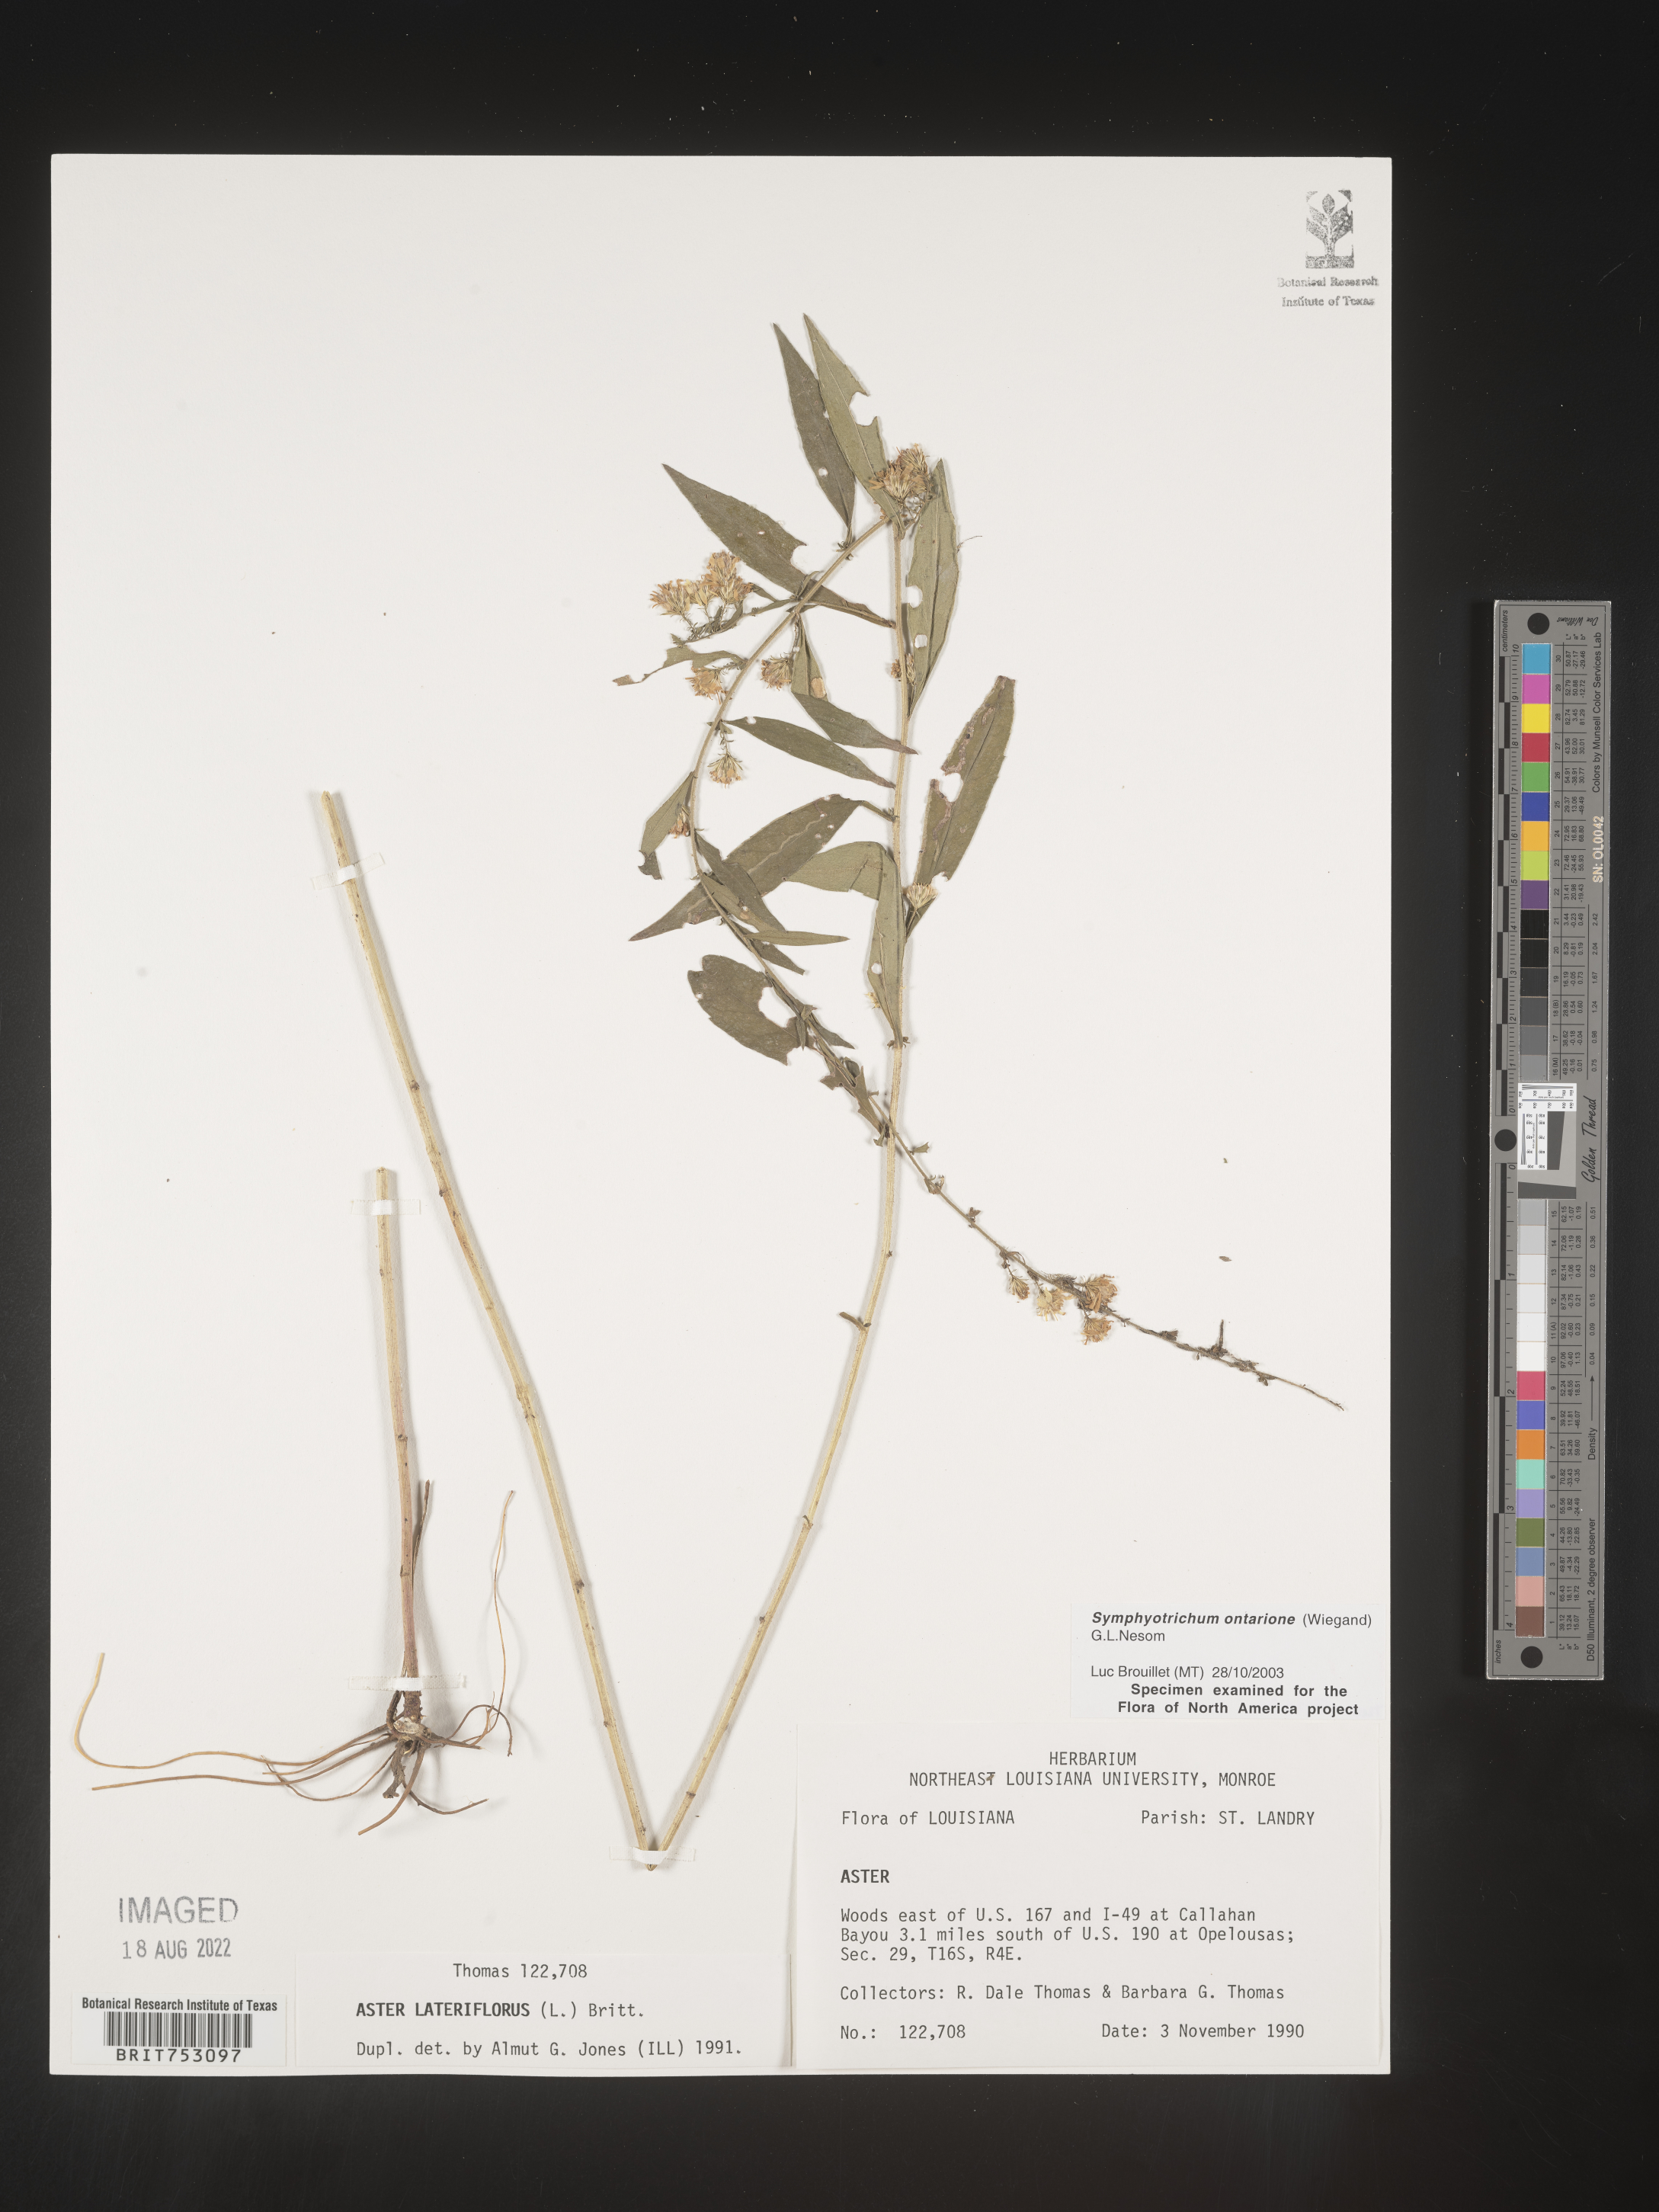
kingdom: Plantae
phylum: Tracheophyta
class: Magnoliopsida
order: Asterales
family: Asteraceae
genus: Symphyotrichum
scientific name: Symphyotrichum ontarionis
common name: Bottomland aster
